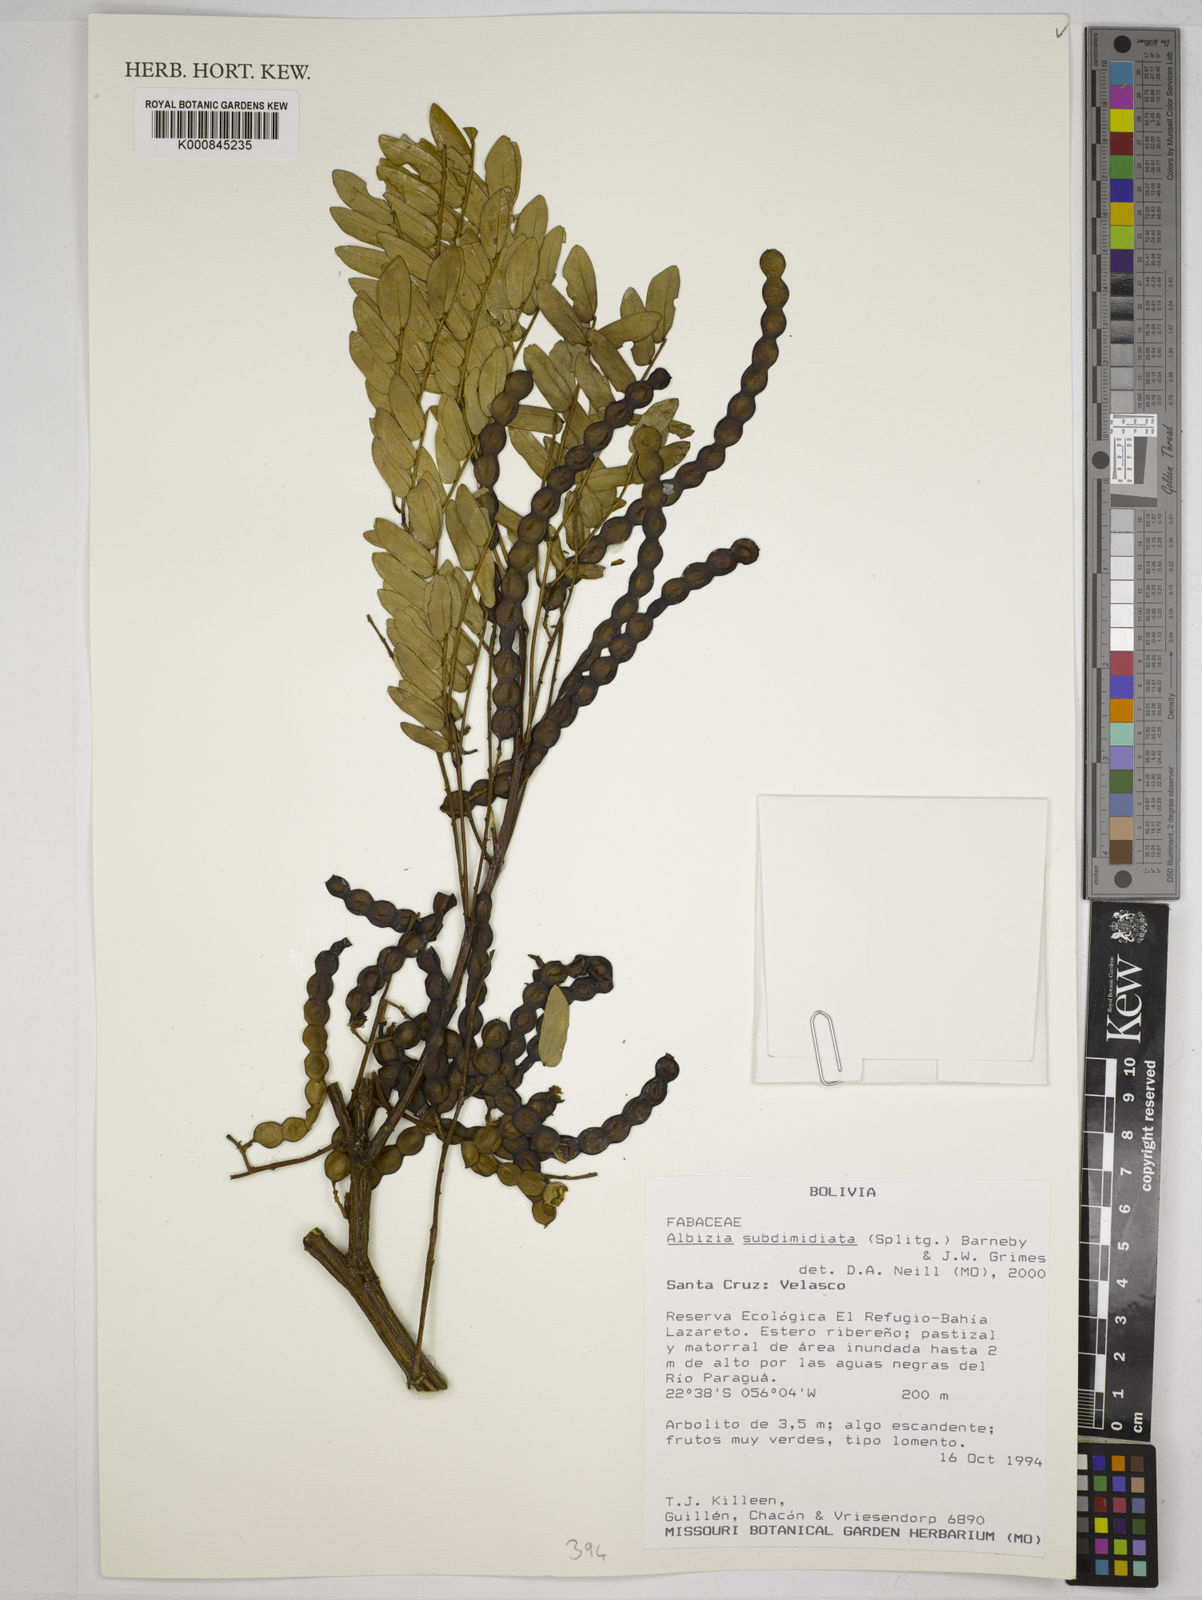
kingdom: Plantae
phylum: Tracheophyta
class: Magnoliopsida
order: Fabales
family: Fabaceae
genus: Albizia
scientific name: Albizia subdimidiata
